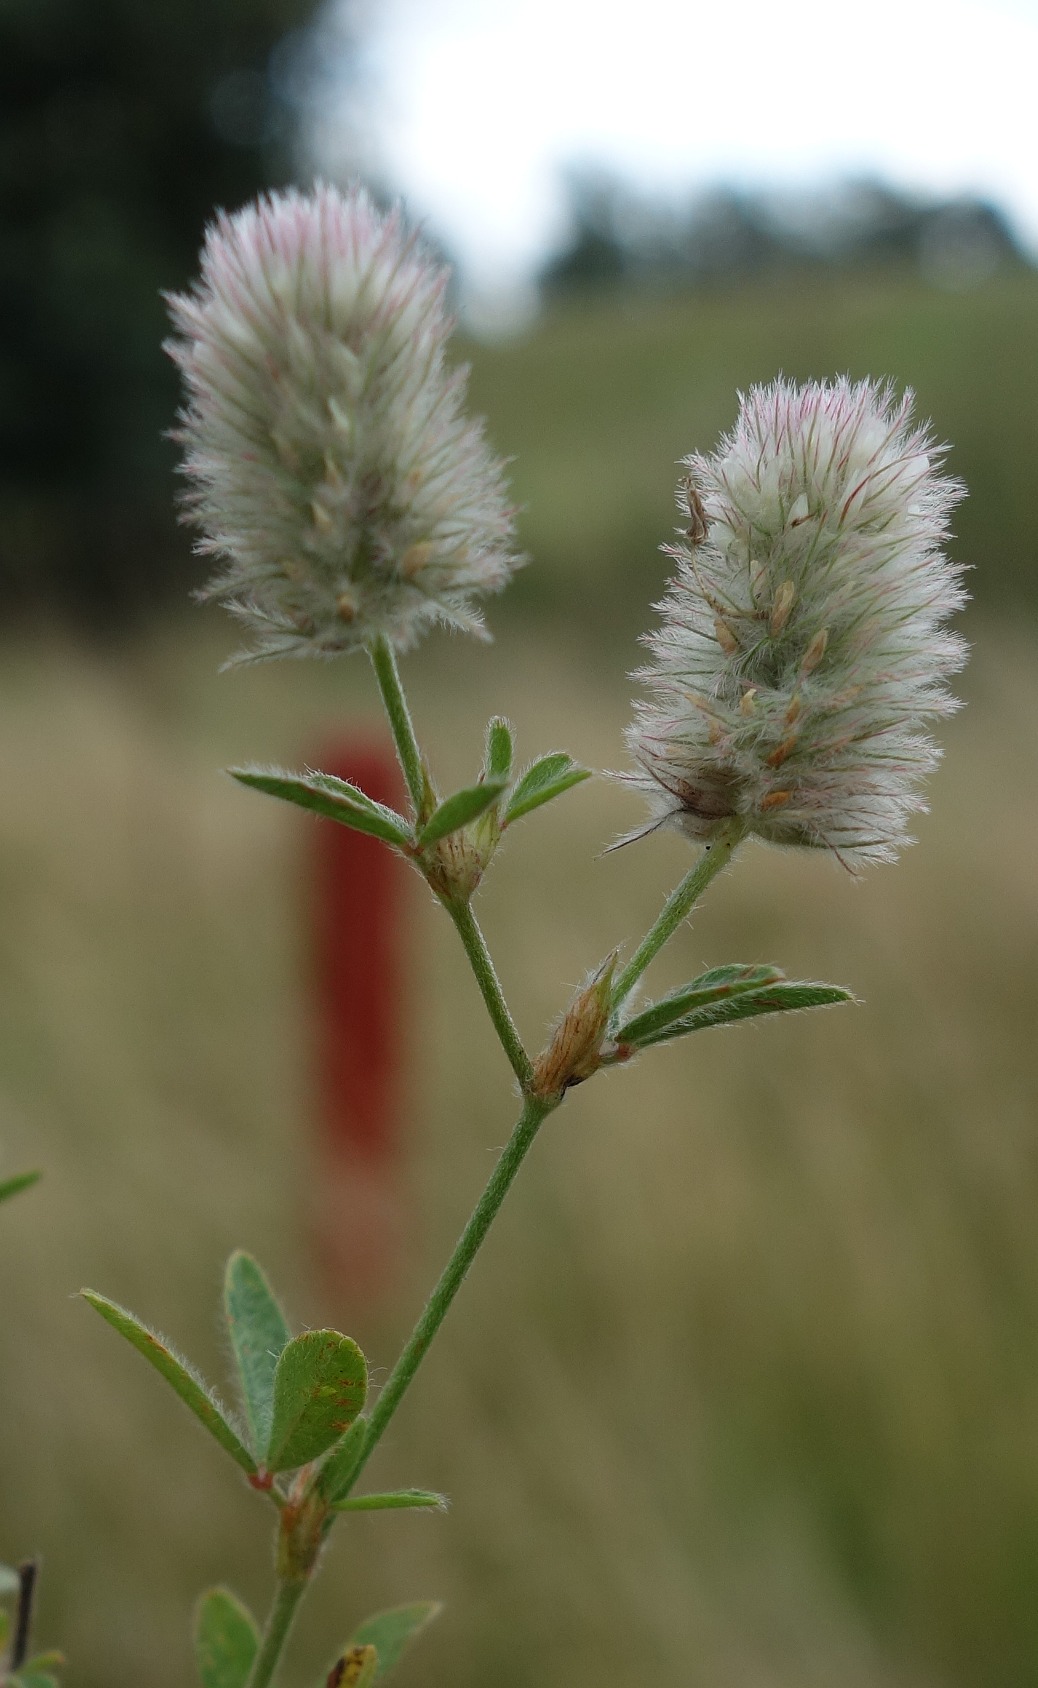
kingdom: Plantae
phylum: Tracheophyta
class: Magnoliopsida
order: Fabales
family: Fabaceae
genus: Trifolium
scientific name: Trifolium arvense
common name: Hare-kløver
